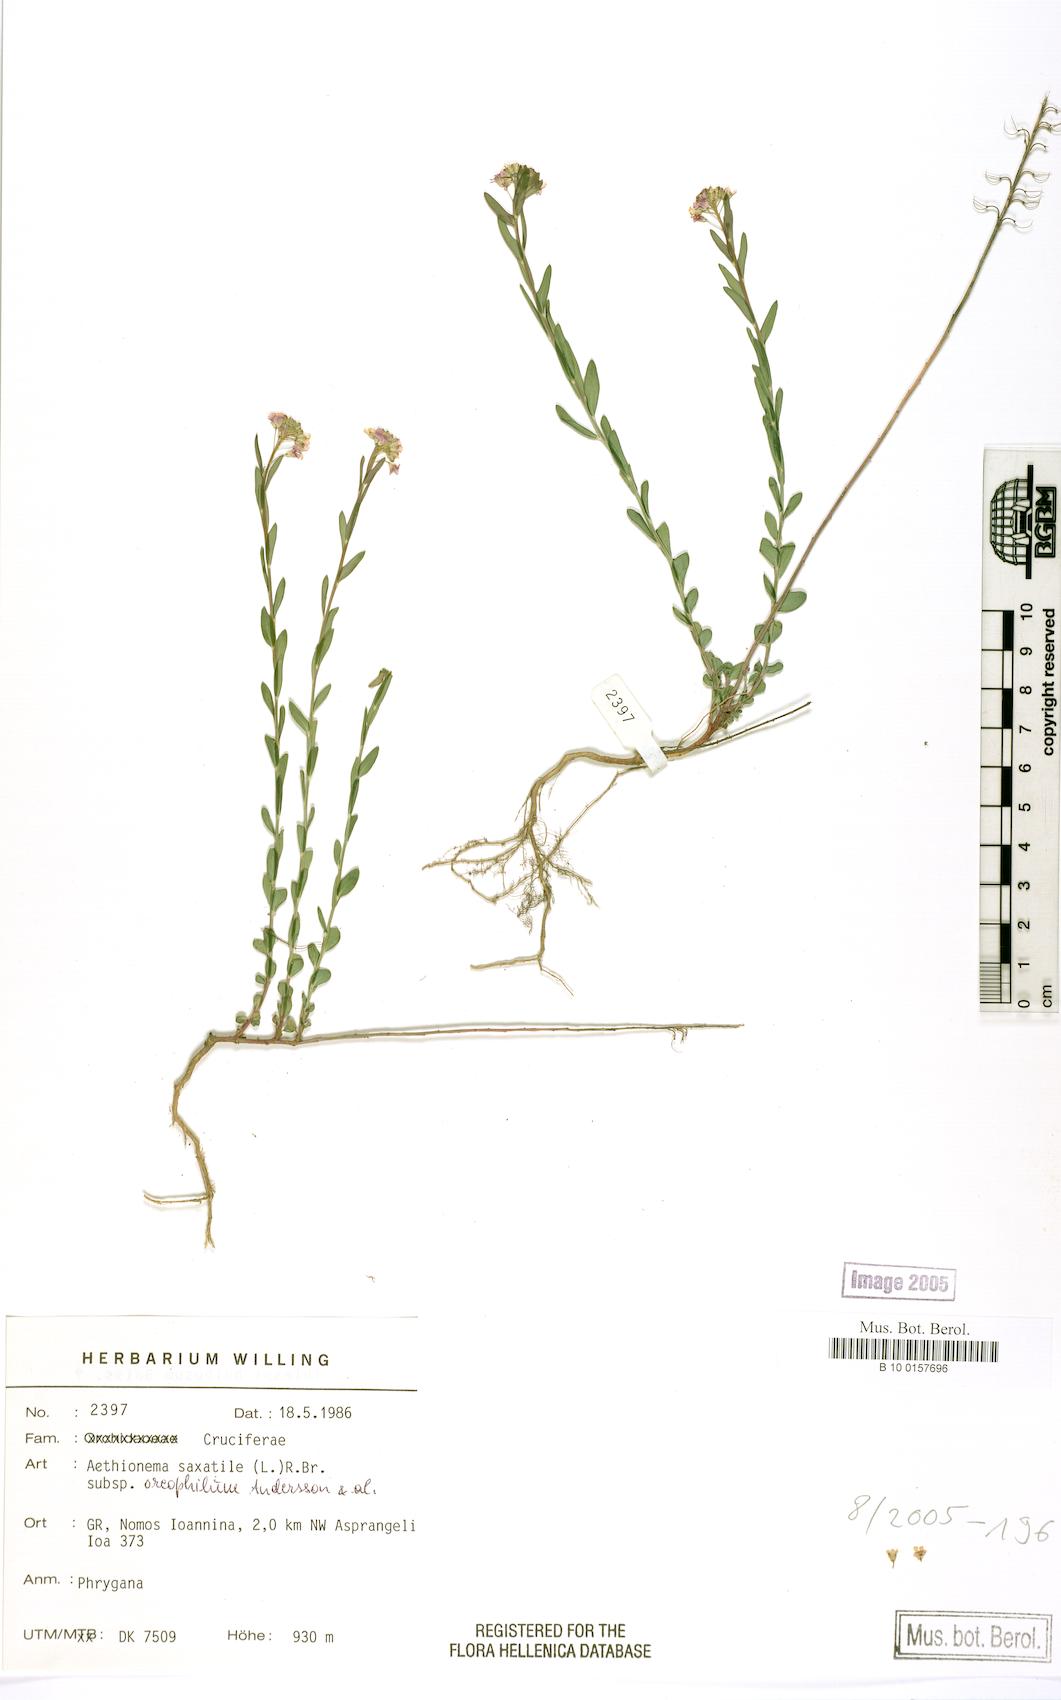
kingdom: Plantae
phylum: Tracheophyta
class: Magnoliopsida
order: Brassicales
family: Brassicaceae
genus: Aethionema
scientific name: Aethionema saxatile
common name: Burnt candytuft
